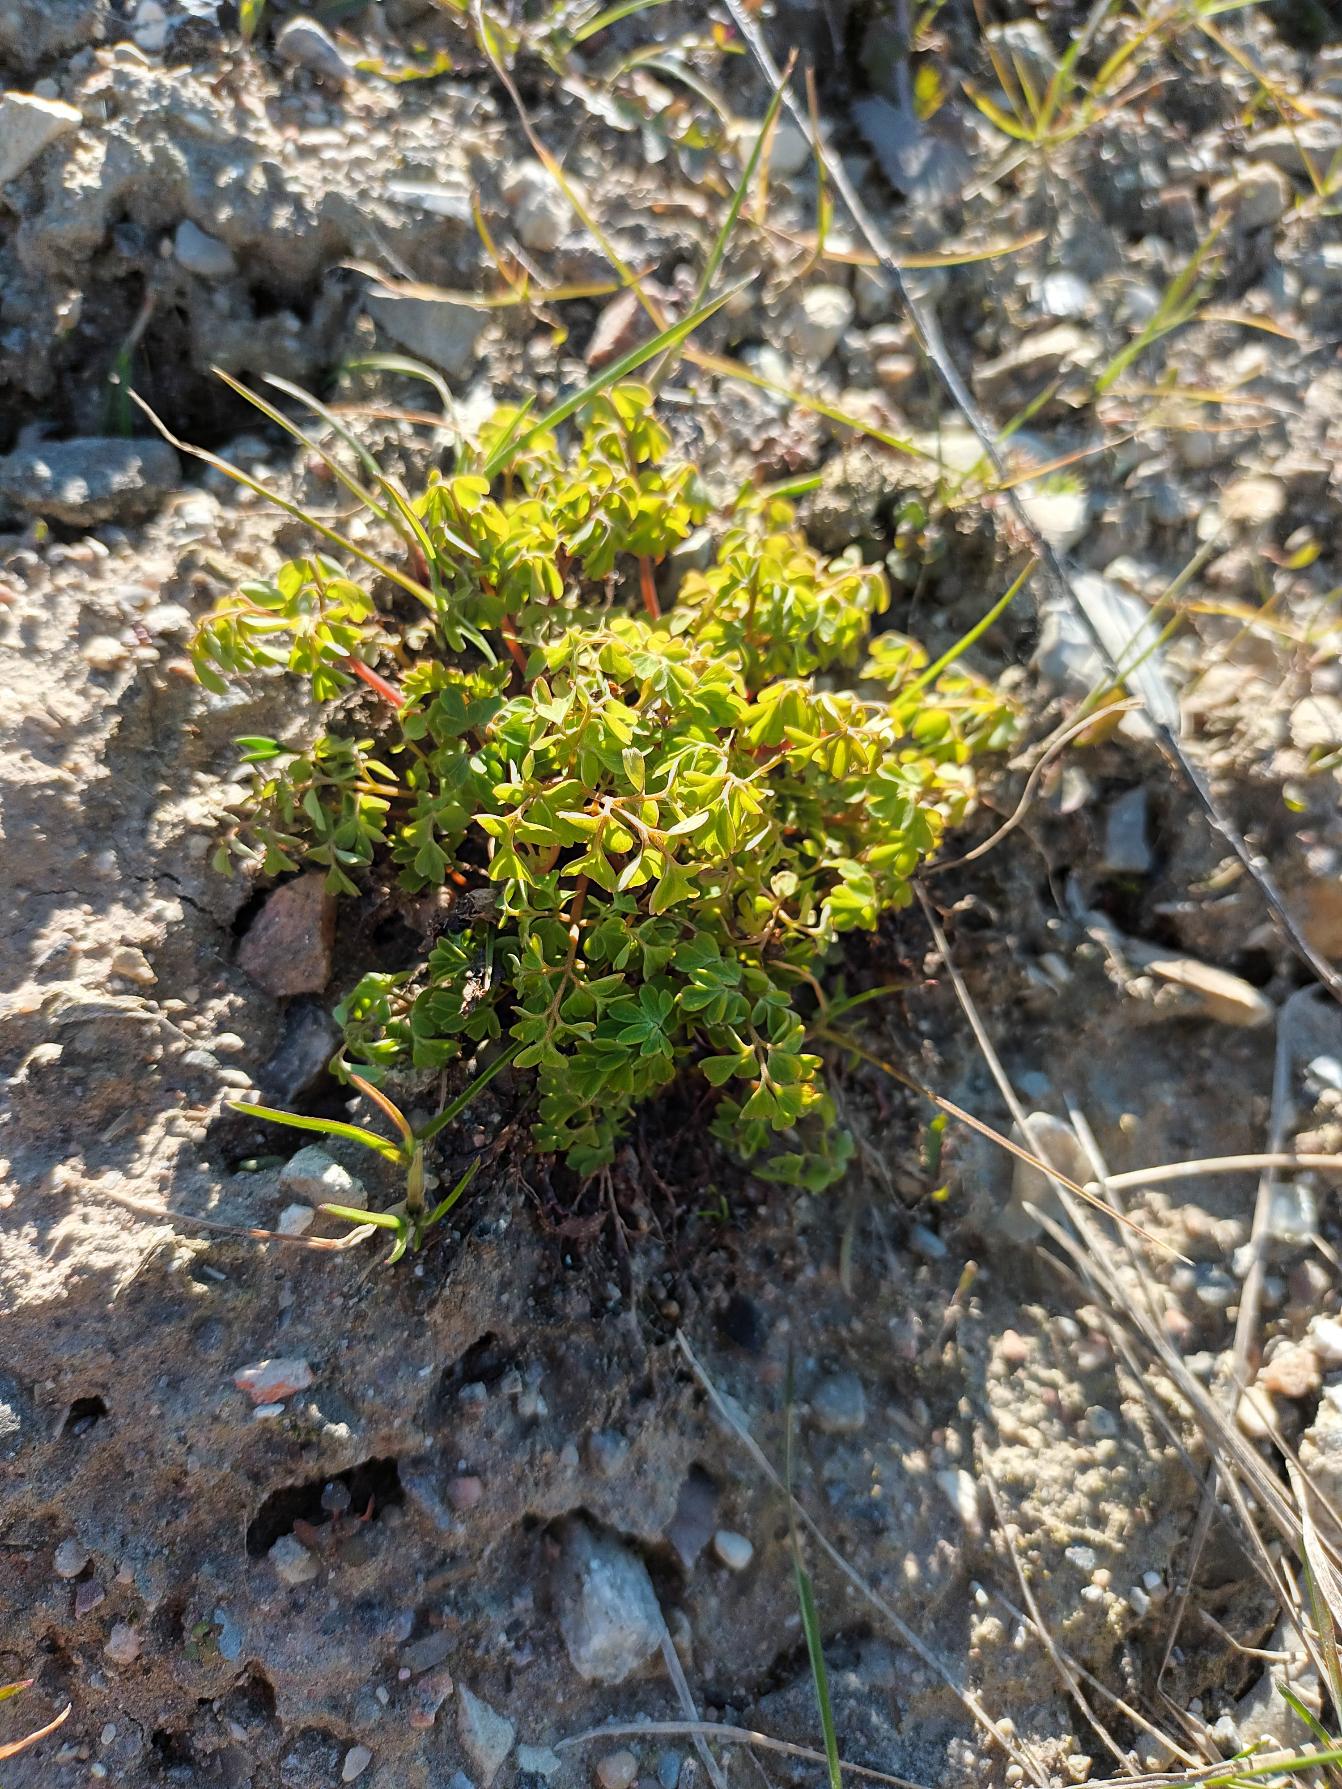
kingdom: Plantae
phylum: Tracheophyta
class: Magnoliopsida
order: Ranunculales
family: Papaveraceae
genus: Pseudofumaria
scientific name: Pseudofumaria lutea
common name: Gul lærkespore
